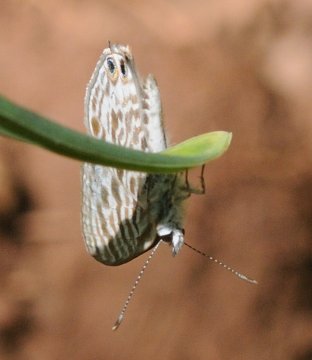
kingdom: Animalia
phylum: Arthropoda
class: Insecta
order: Lepidoptera
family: Lycaenidae
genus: Leptotes
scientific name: Leptotes pirithous
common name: Lang's Short-tailed Blue
